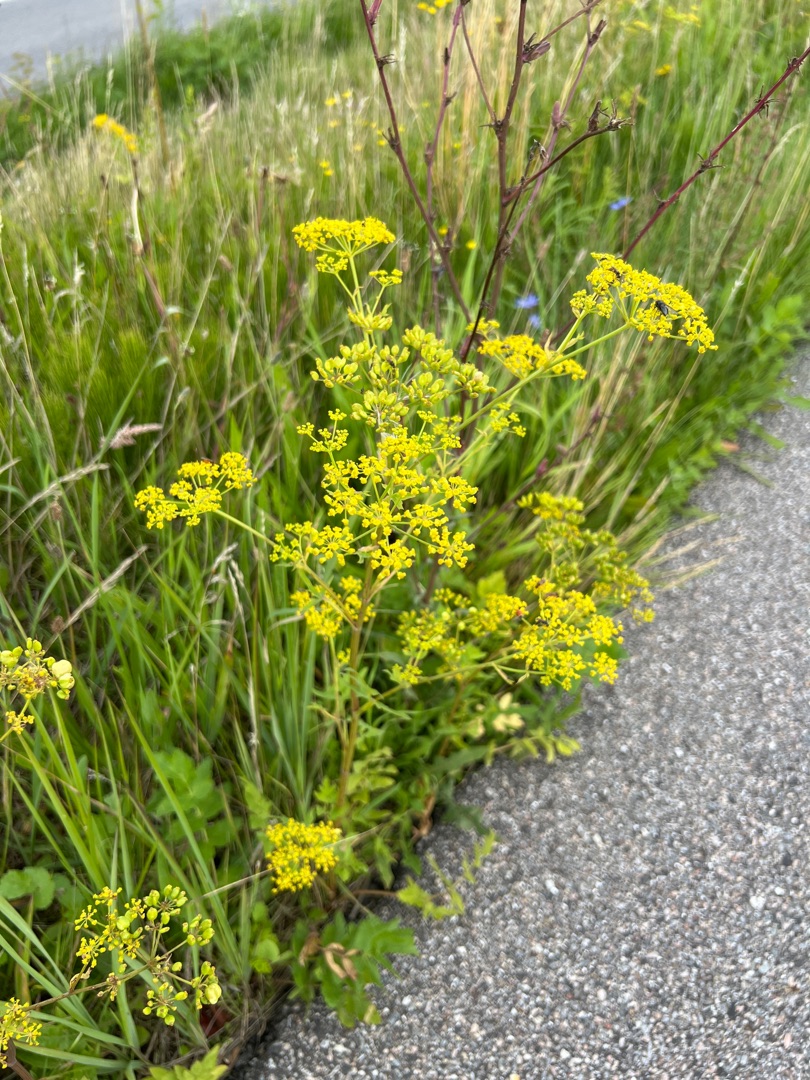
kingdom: Plantae
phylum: Tracheophyta
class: Magnoliopsida
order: Apiales
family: Apiaceae
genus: Pastinaca
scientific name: Pastinaca sativa
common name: Pastinak
